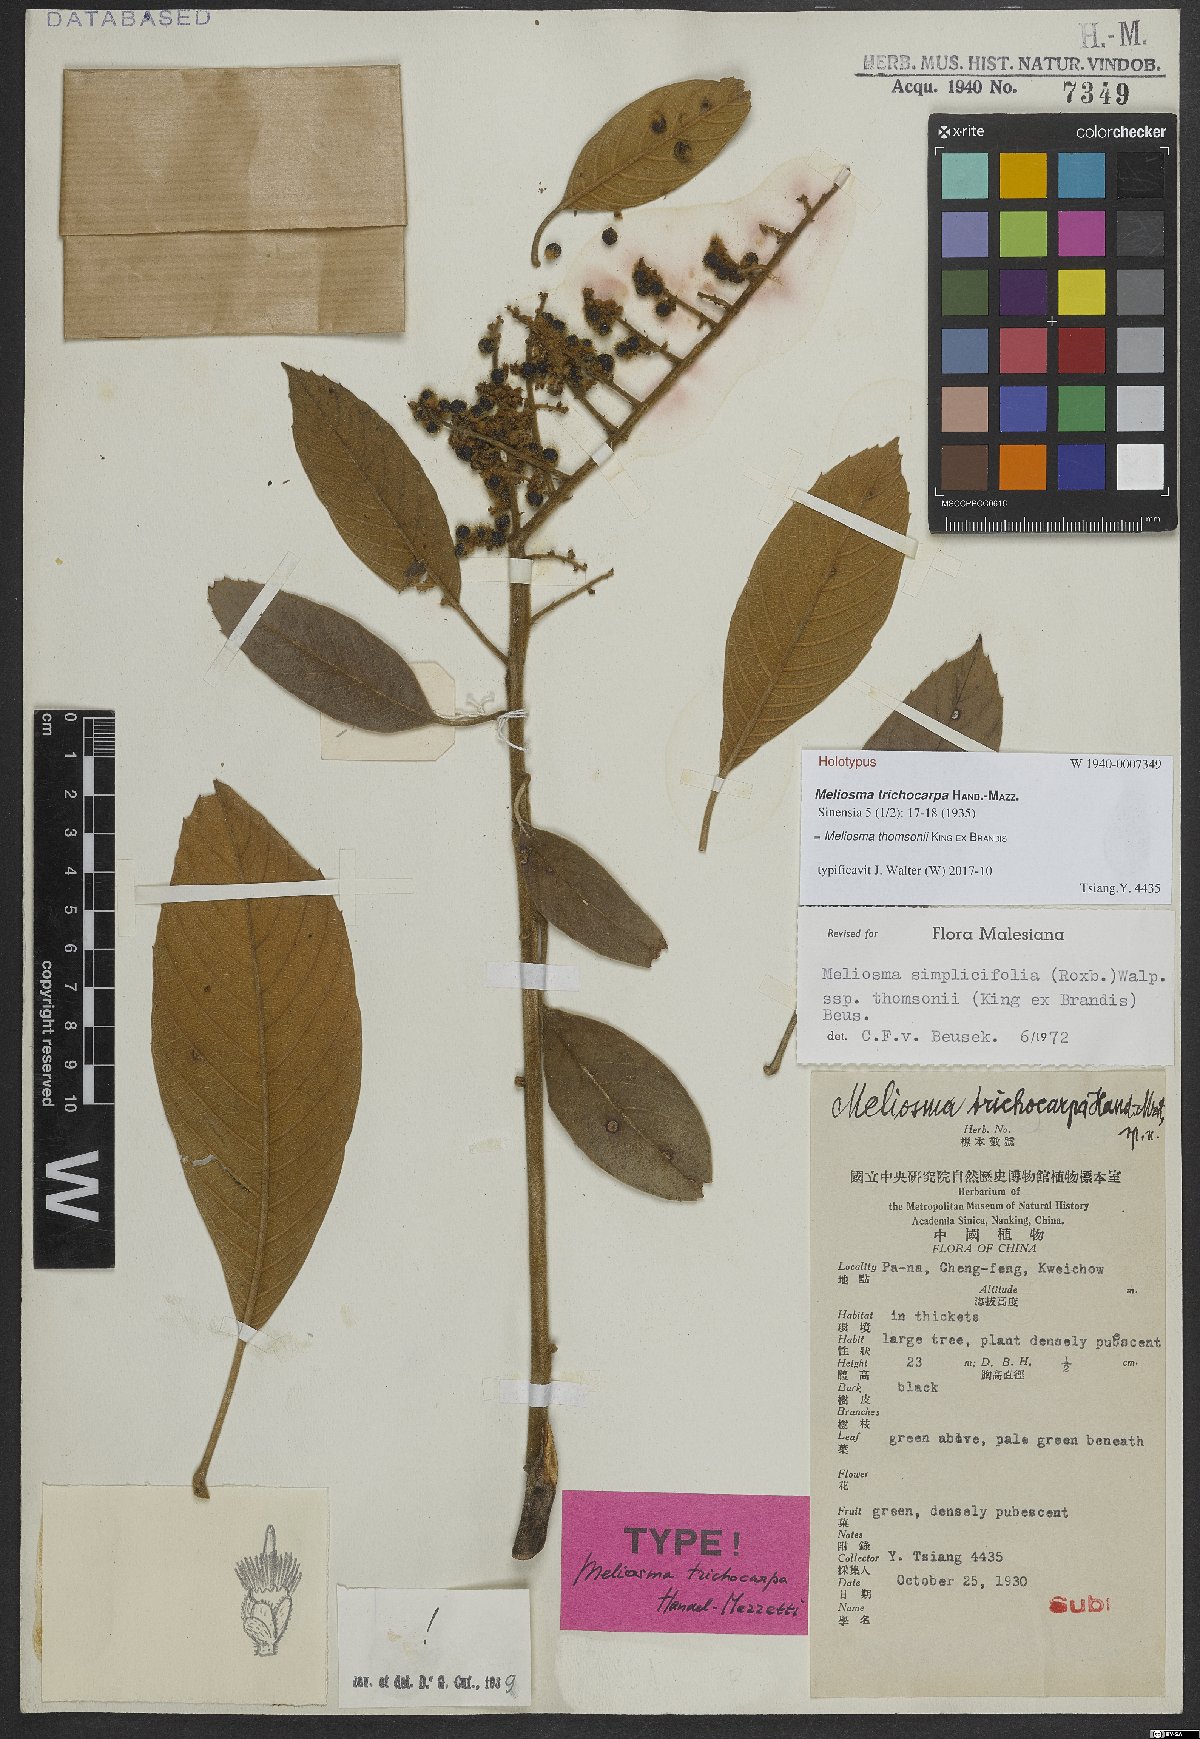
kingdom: Plantae
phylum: Tracheophyta
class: Magnoliopsida
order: Proteales
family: Sabiaceae
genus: Meliosma
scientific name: Meliosma thomsonii
